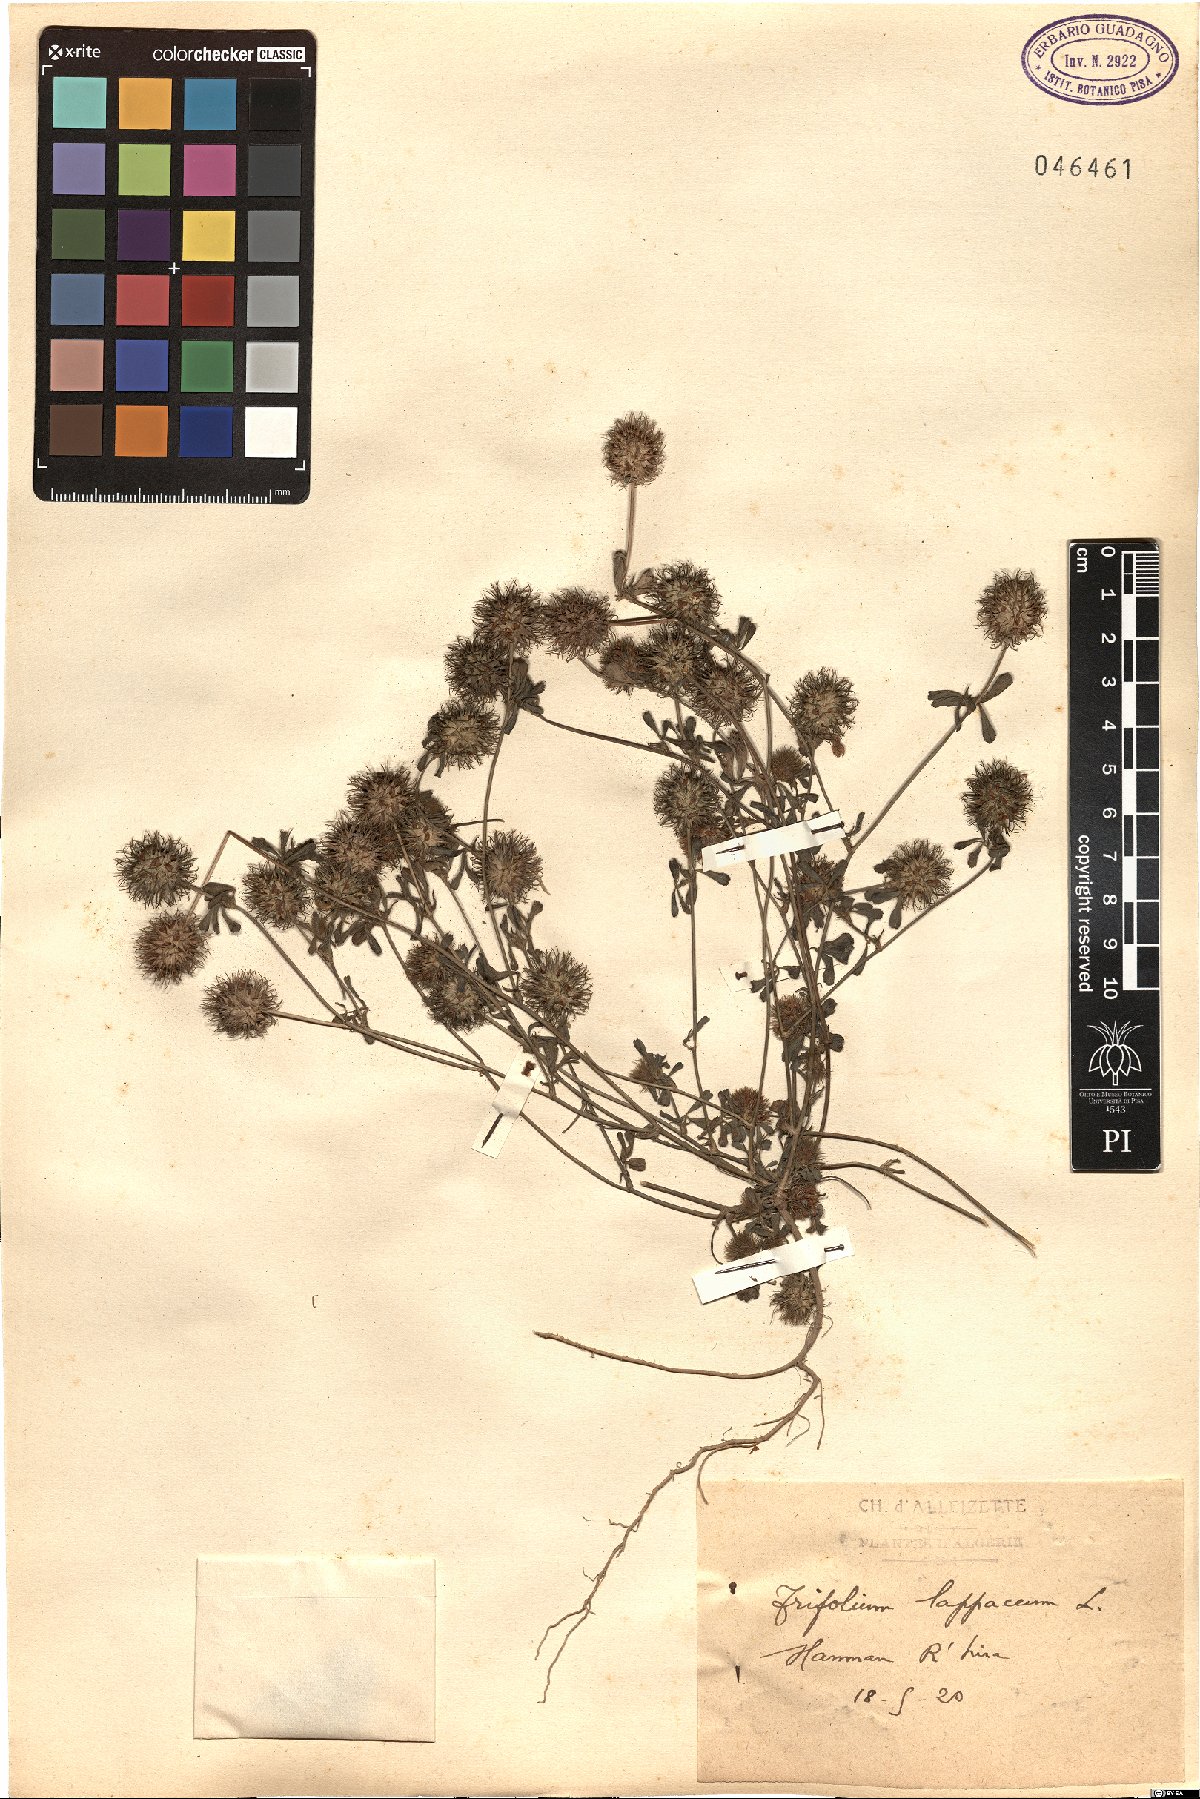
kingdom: Plantae
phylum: Tracheophyta
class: Magnoliopsida
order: Fabales
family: Fabaceae
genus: Trifolium
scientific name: Trifolium lappaceum
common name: Bur clover
